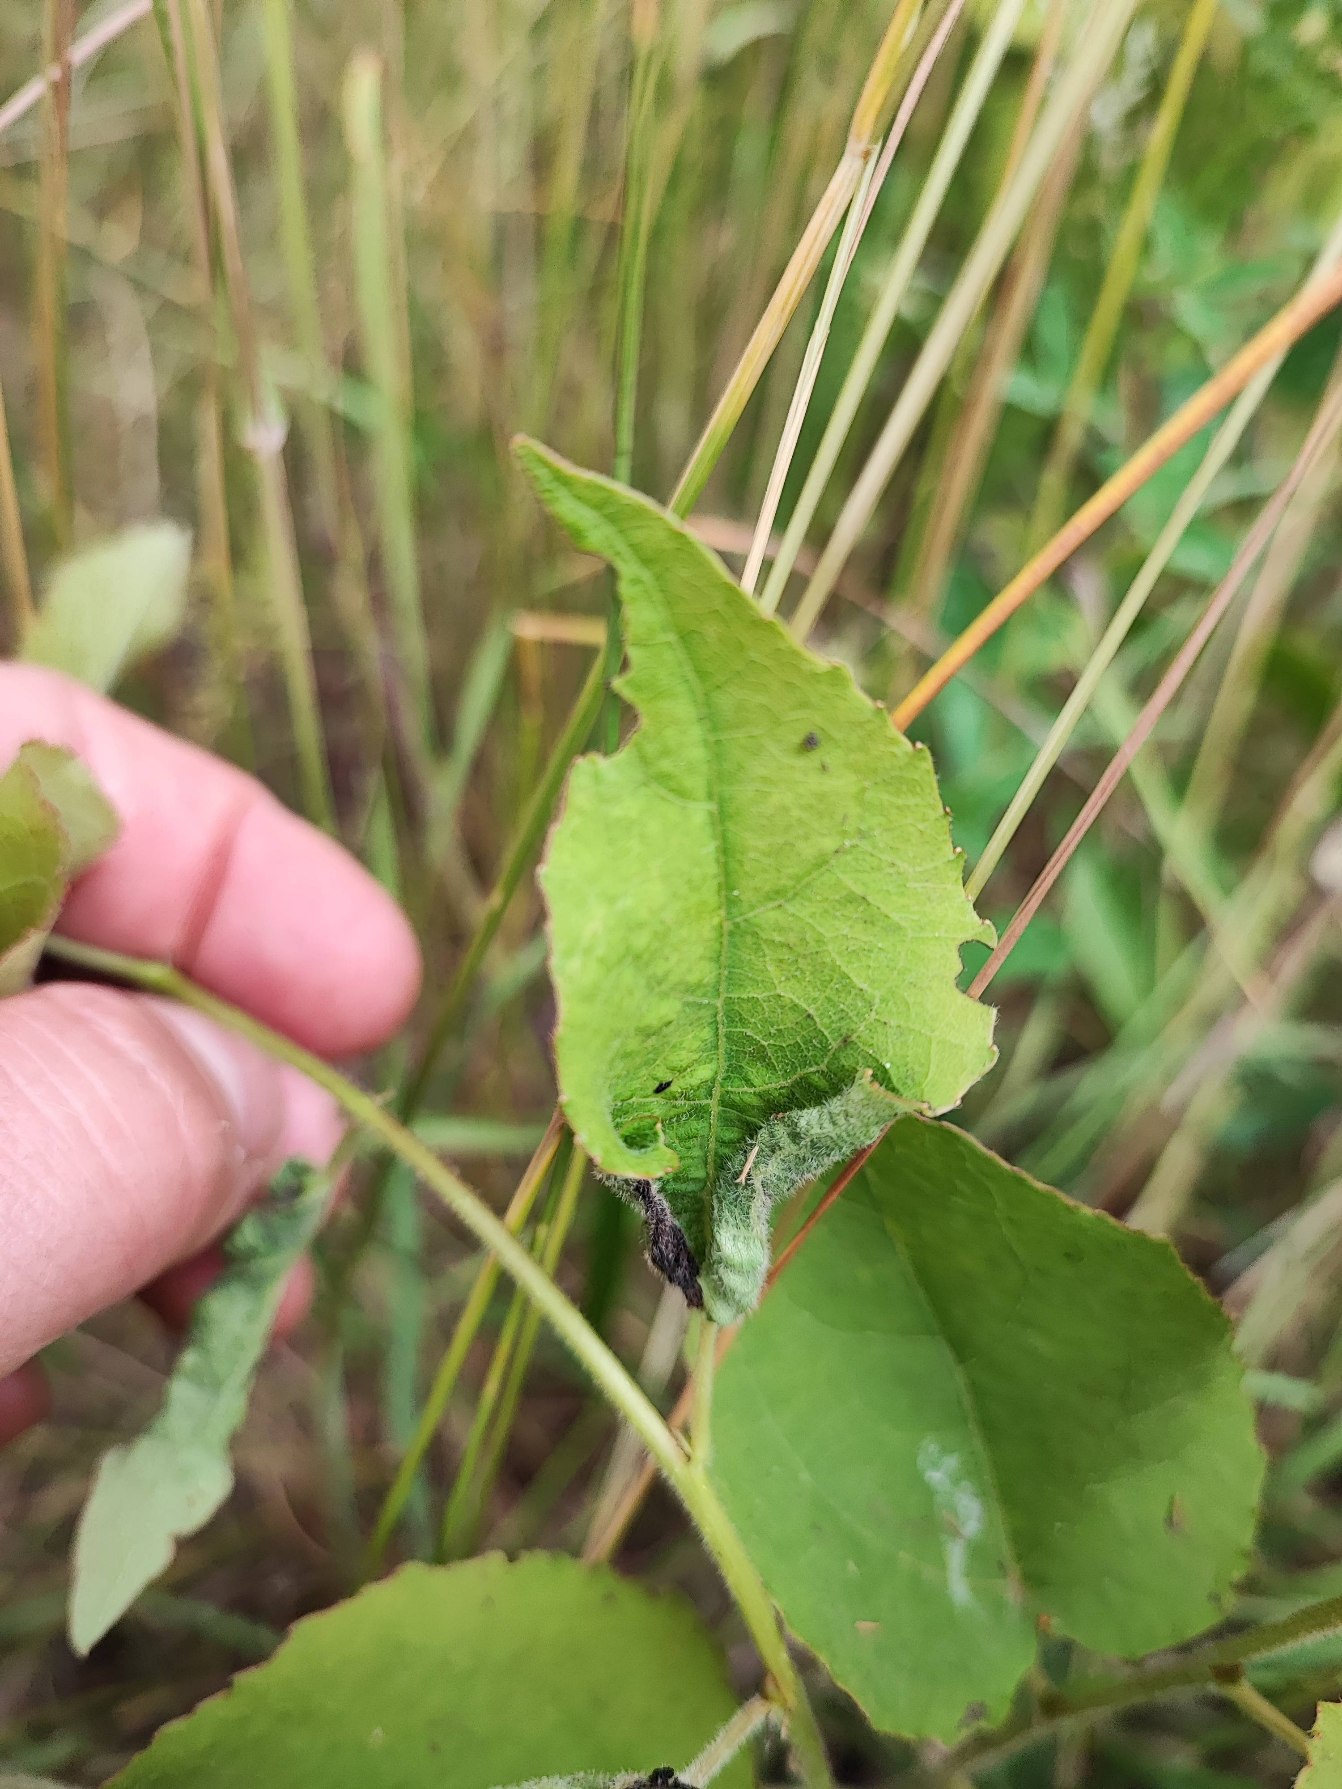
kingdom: Animalia
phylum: Arthropoda
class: Insecta
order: Diptera
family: Cecidomyiidae
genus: Dasineura
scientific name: Dasineura populeti
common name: Asperullergalmyg
